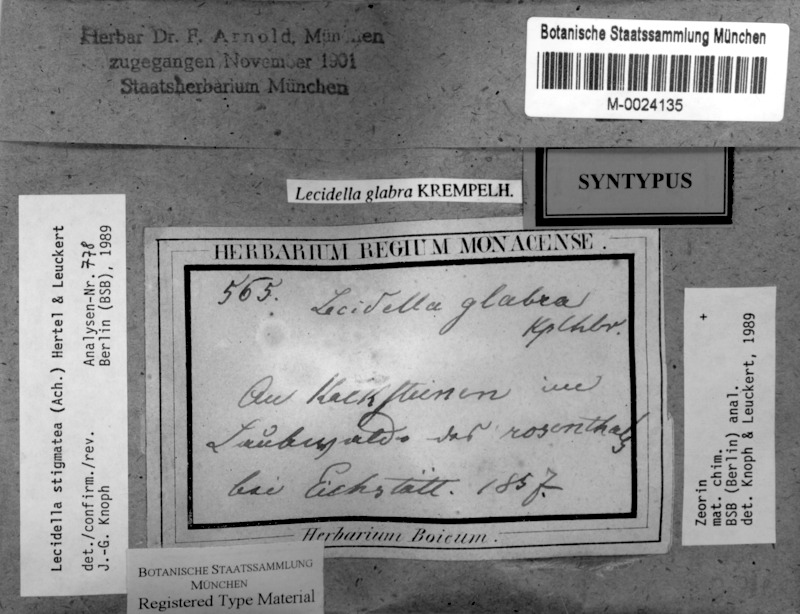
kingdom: Fungi
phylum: Ascomycota
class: Lecanoromycetes
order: Lecanorales
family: Lecanoraceae
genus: Lecidella
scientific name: Lecidella stigmatea
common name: Limestone disc lichen
